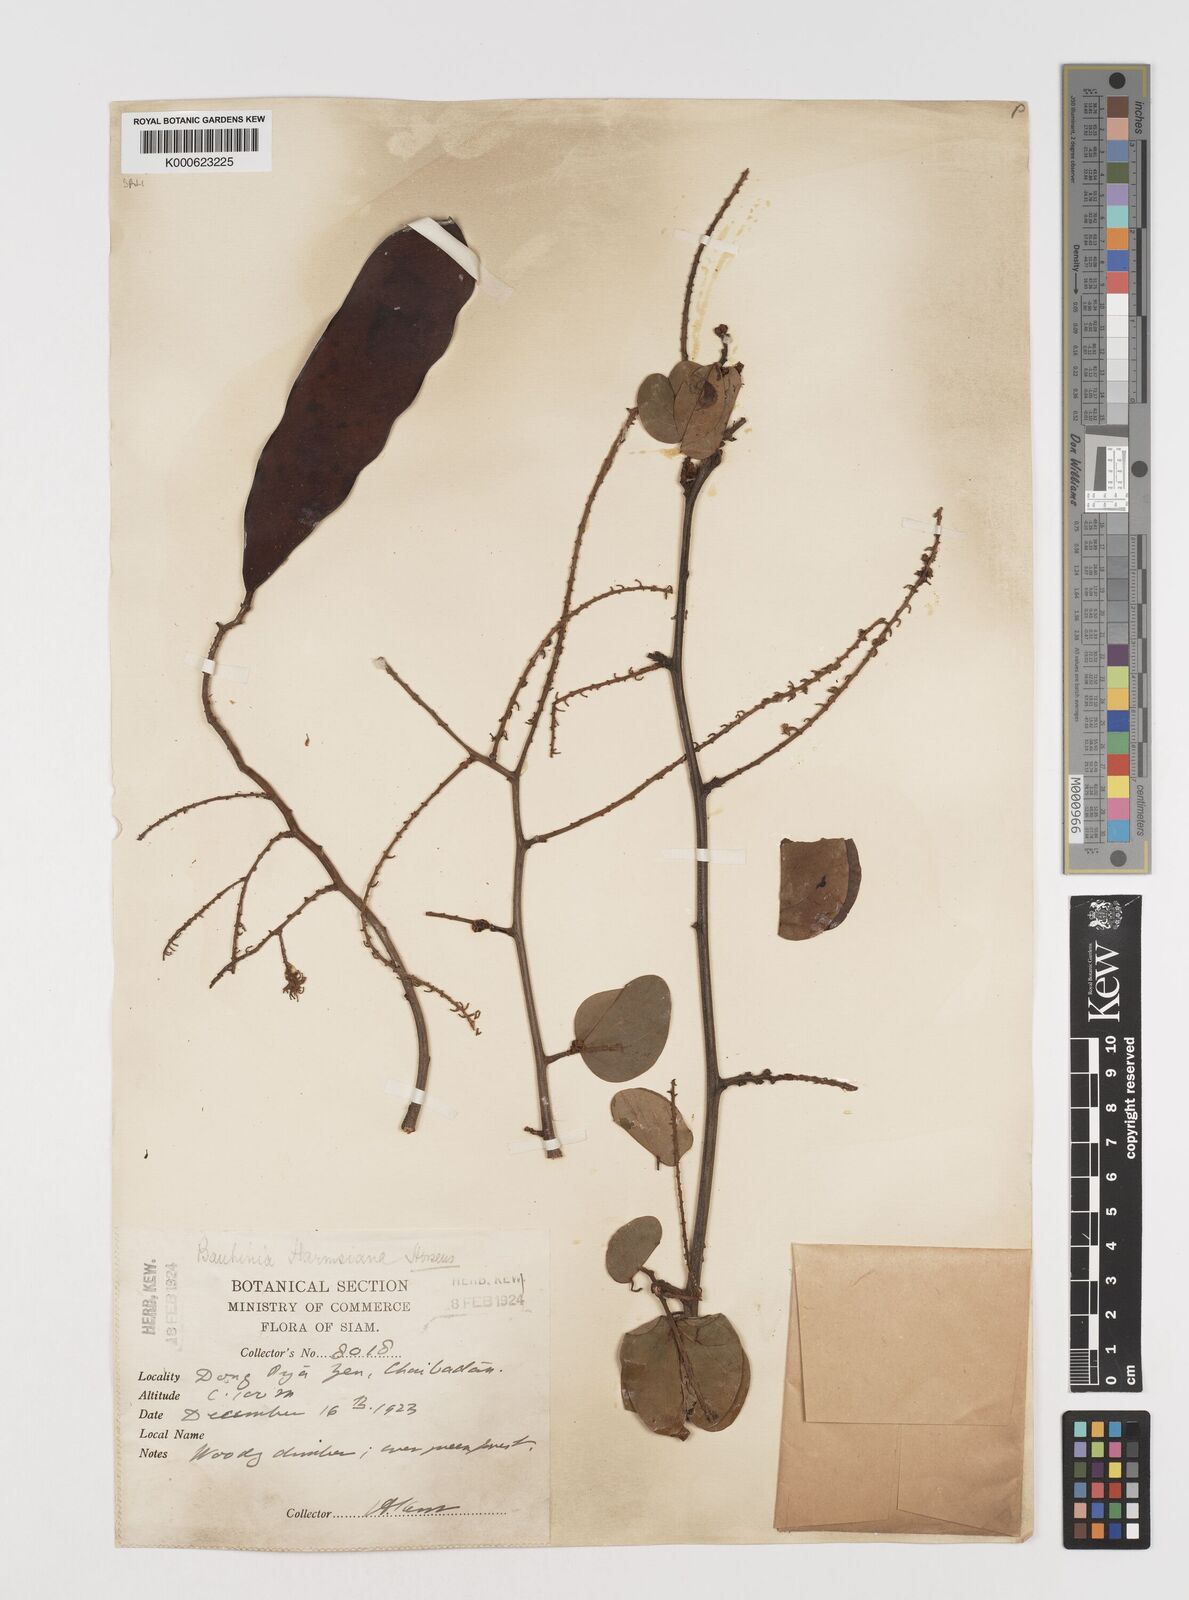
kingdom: Plantae
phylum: Tracheophyta
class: Magnoliopsida
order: Fabales
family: Fabaceae
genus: Phanera
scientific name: Phanera harmsiana
